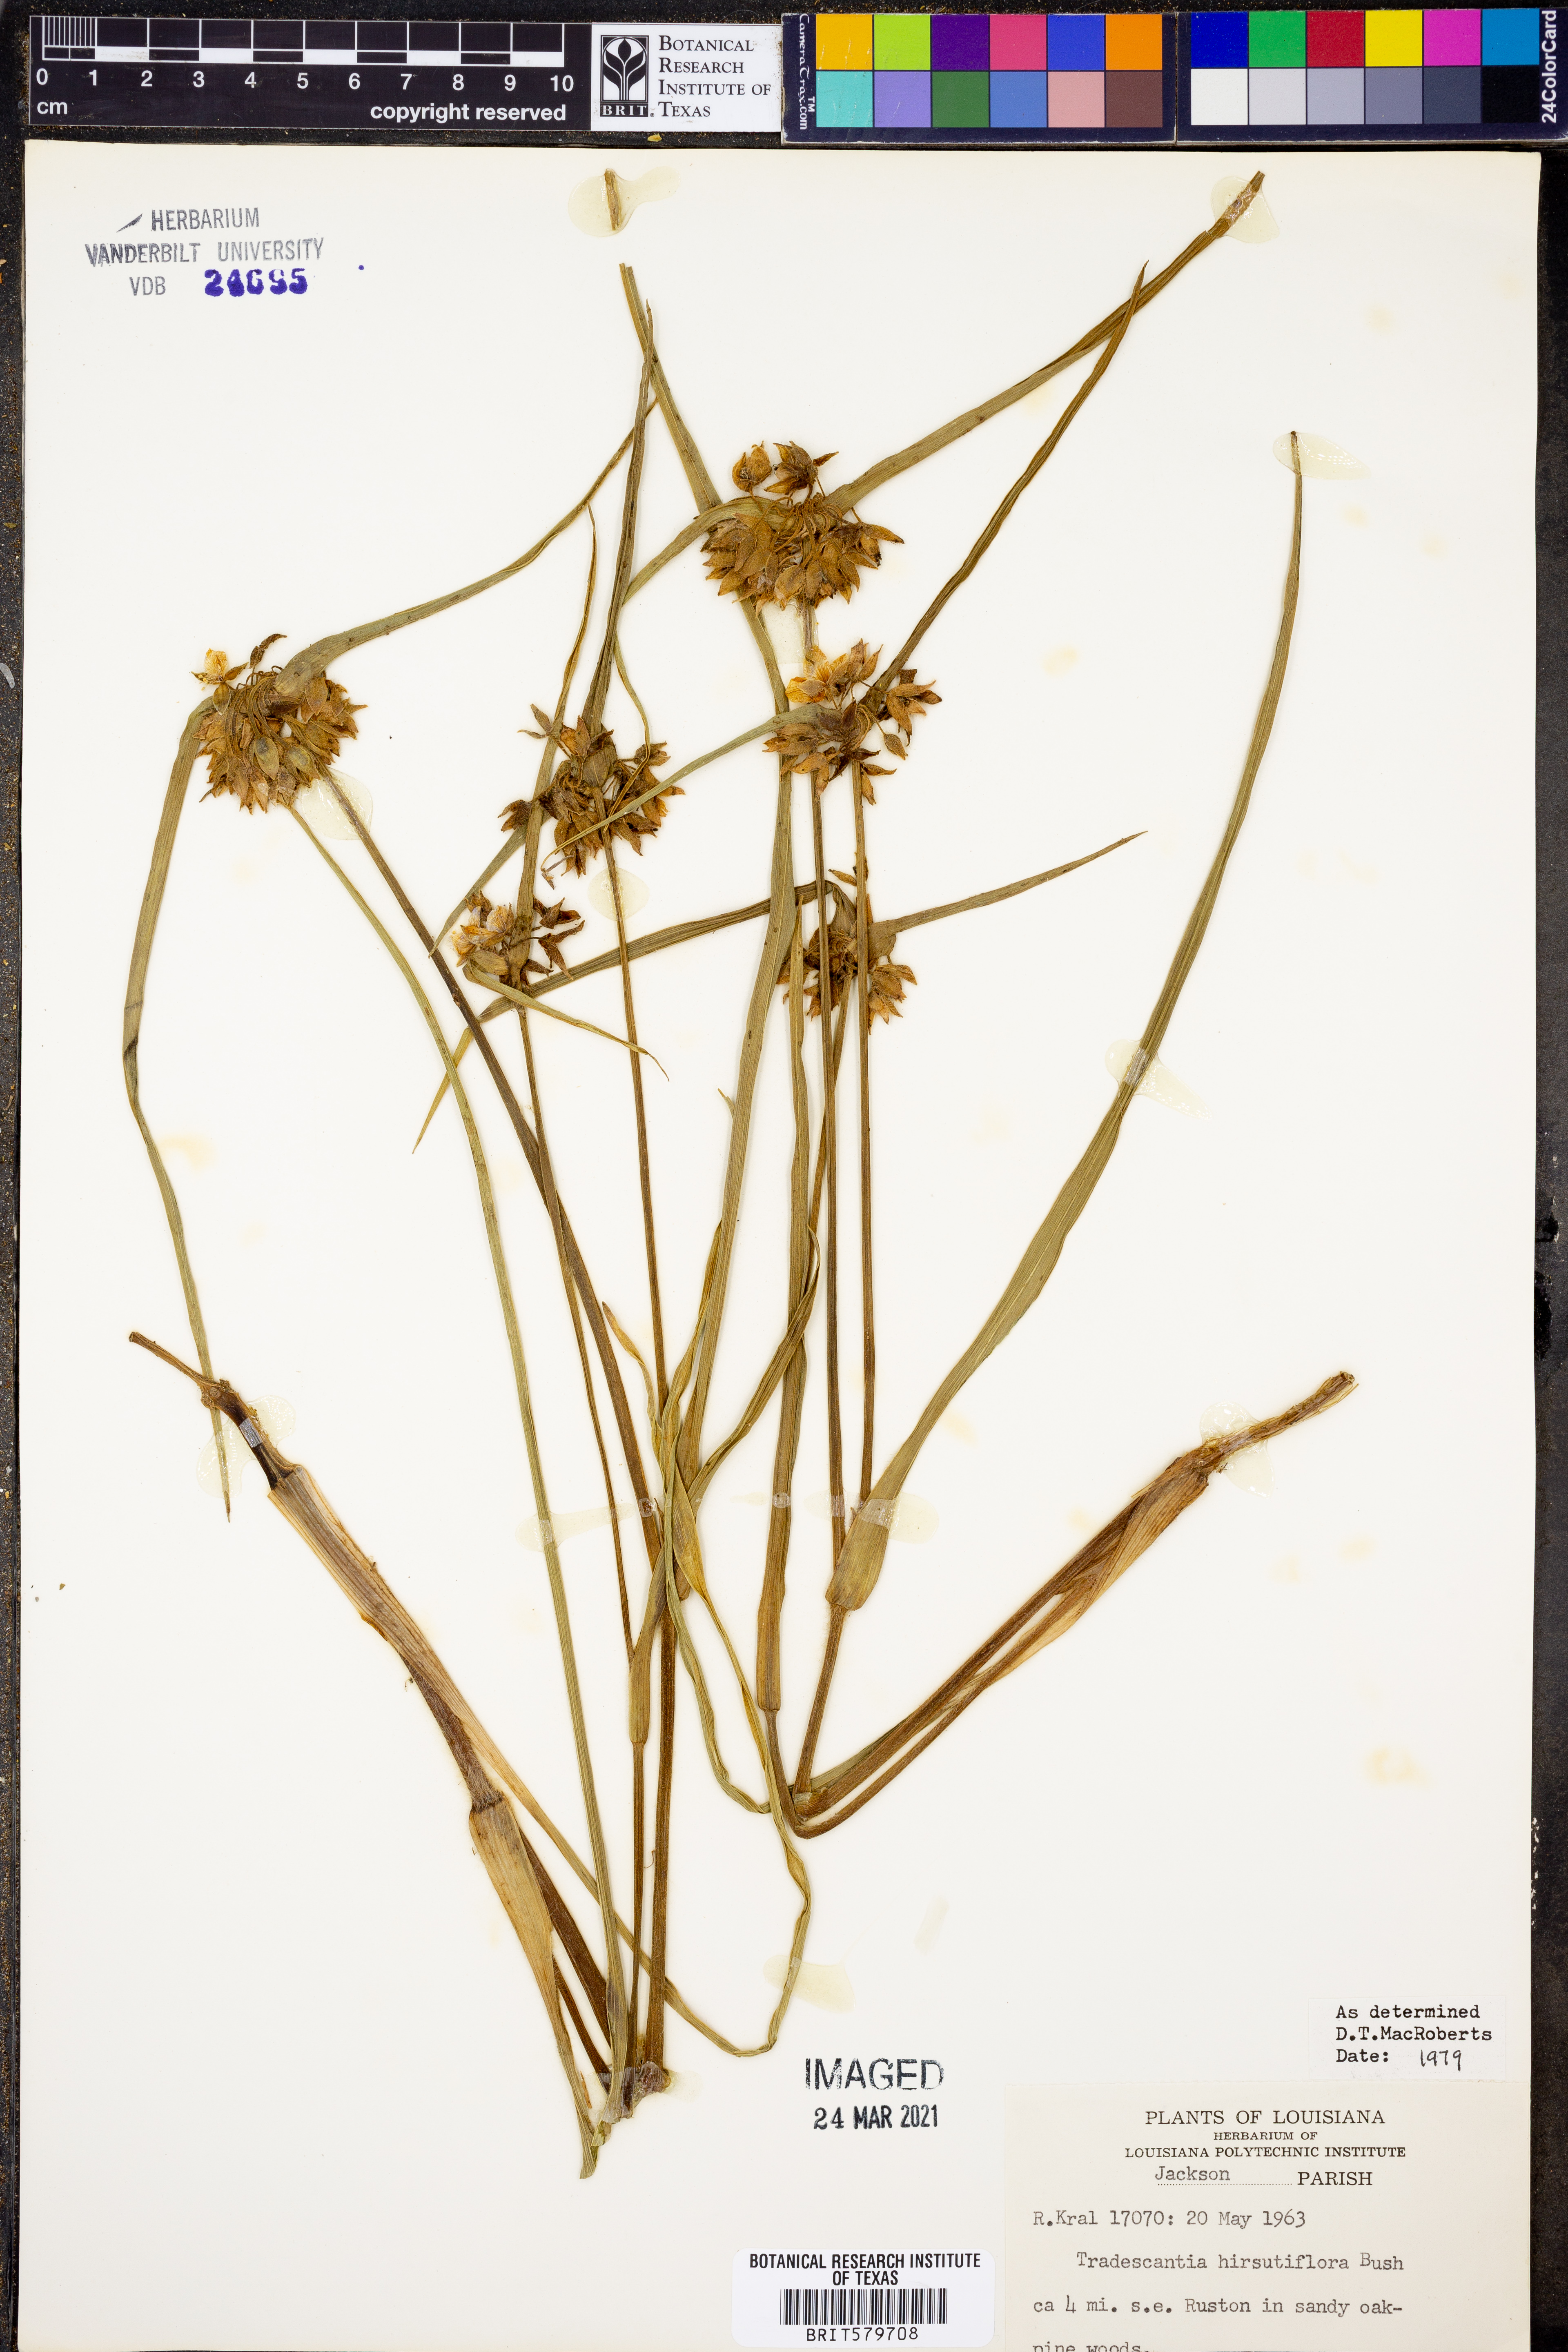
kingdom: Plantae
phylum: Tracheophyta
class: Liliopsida
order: Commelinales
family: Commelinaceae
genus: Tradescantia
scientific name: Tradescantia hirsutiflora
